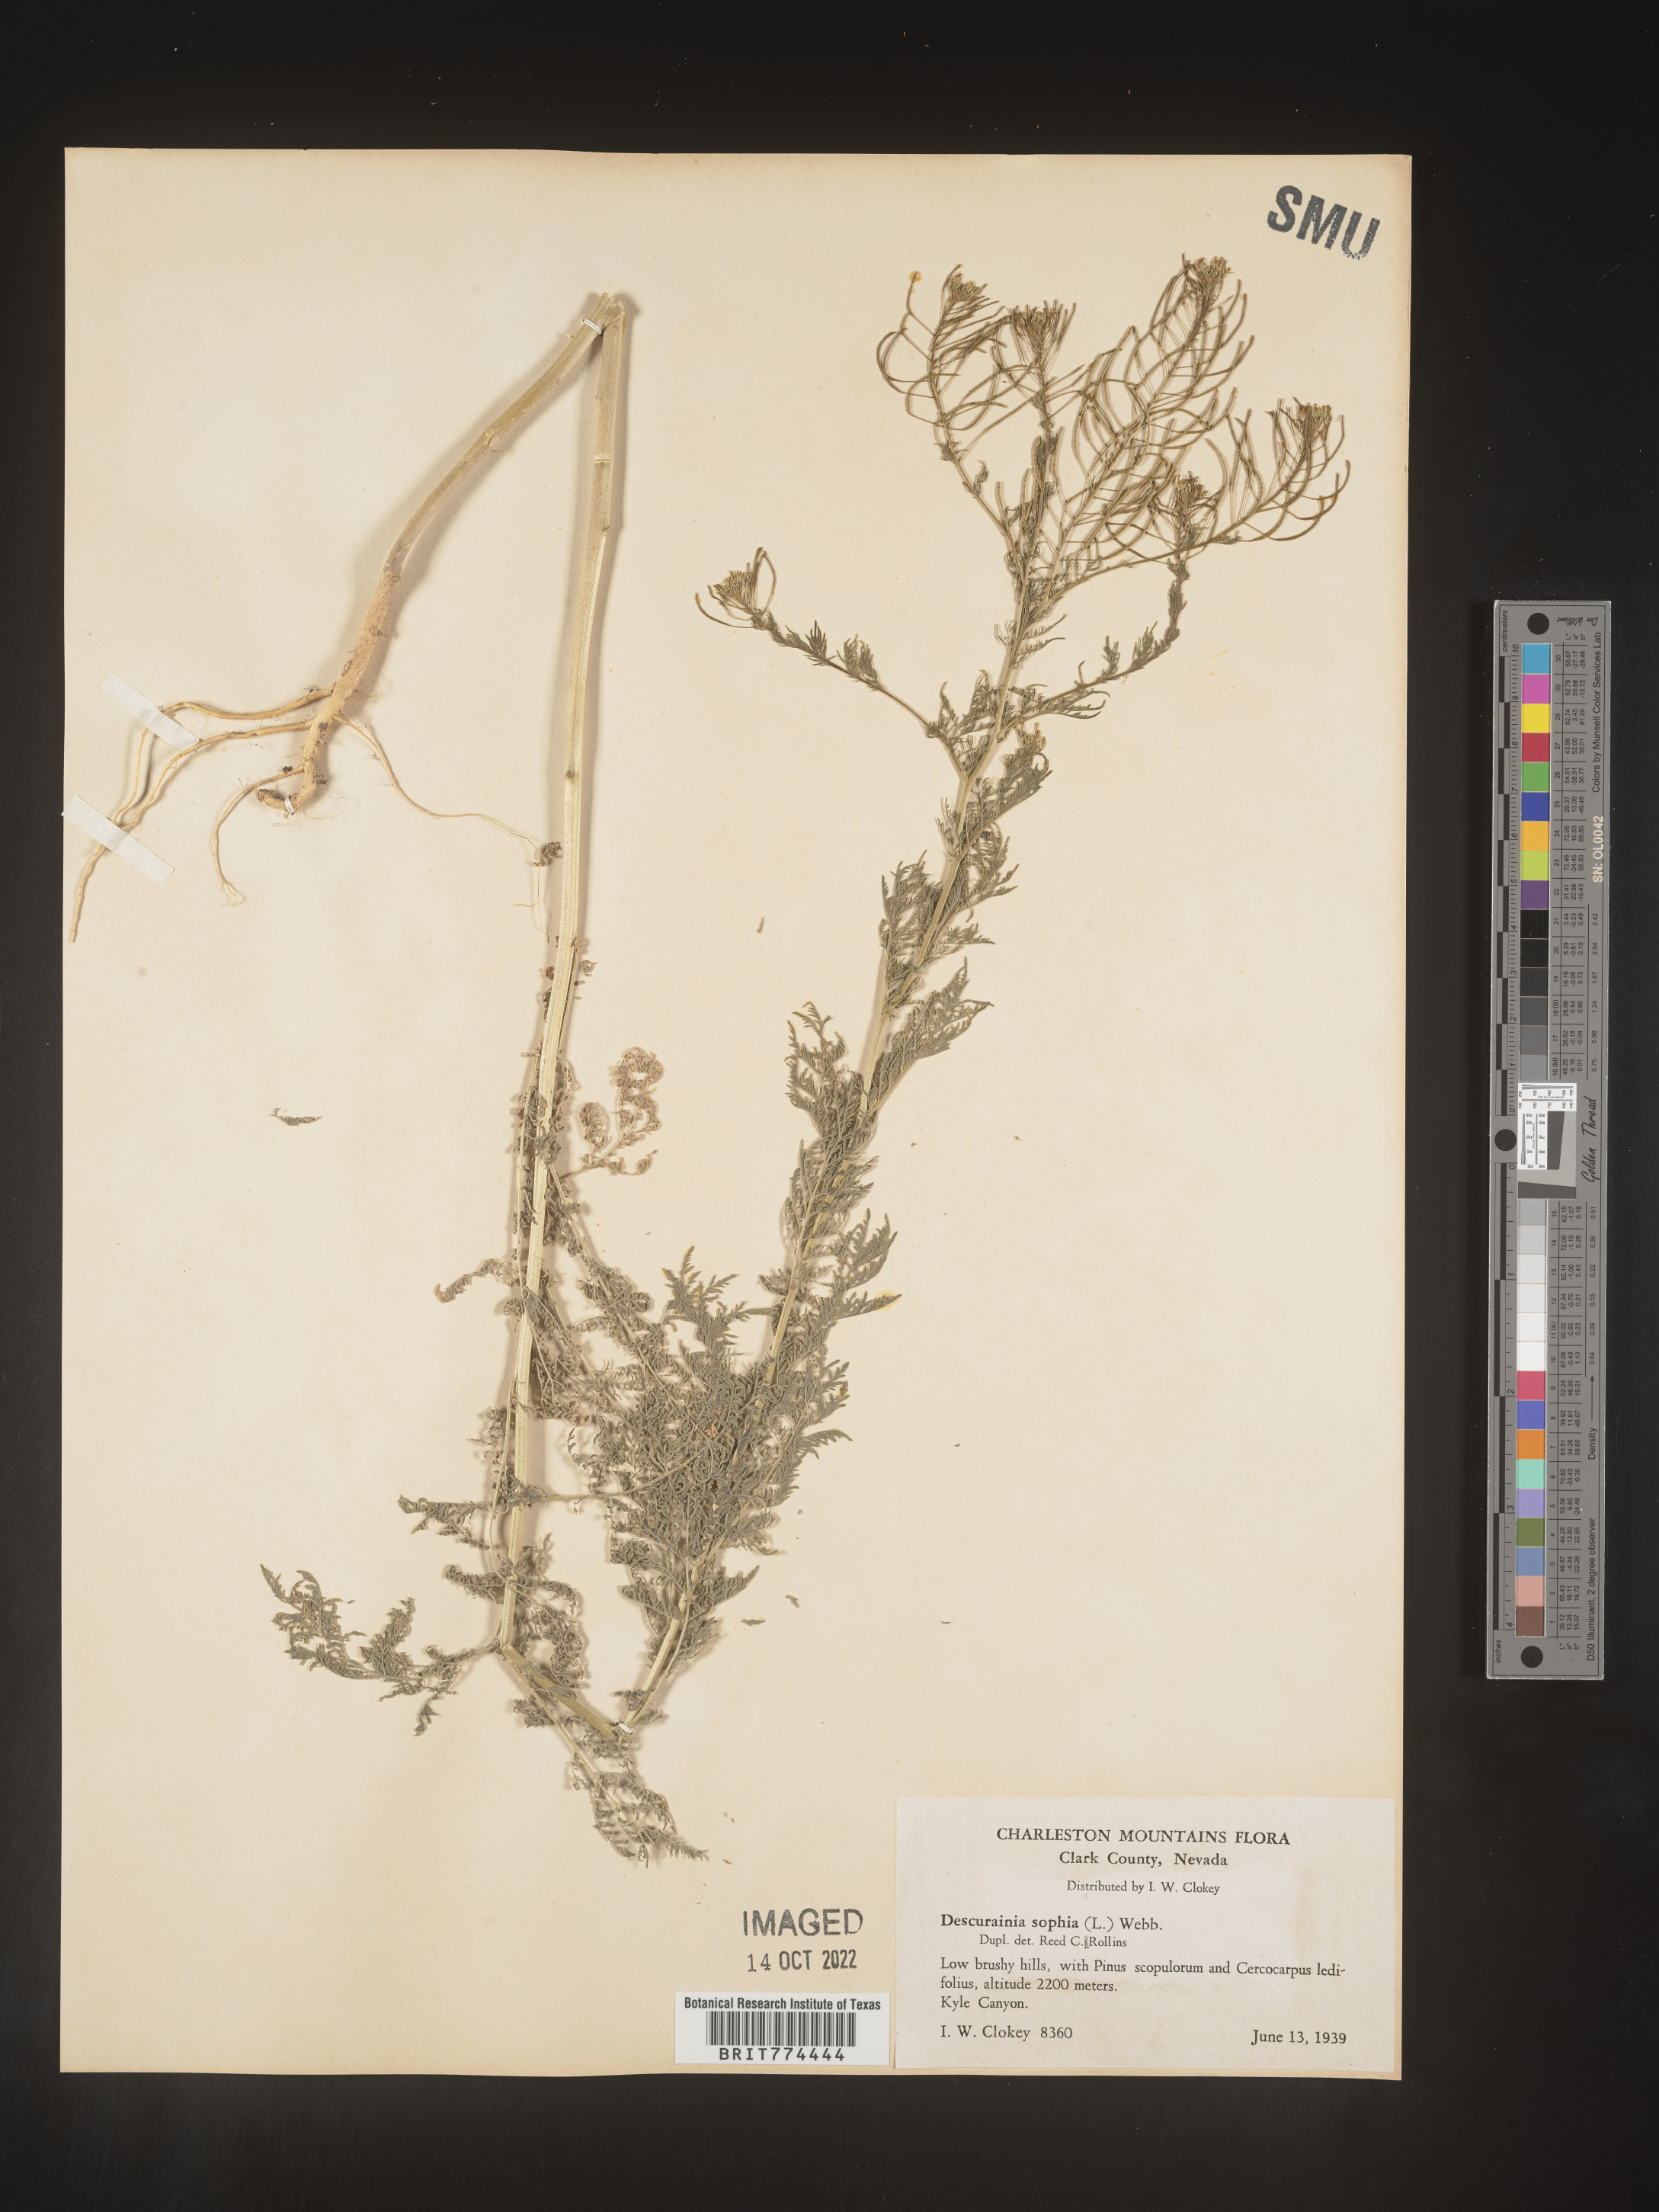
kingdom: Plantae
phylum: Tracheophyta
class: Magnoliopsida
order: Brassicales
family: Brassicaceae
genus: Descurainia
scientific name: Descurainia sophia
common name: Flixweed
